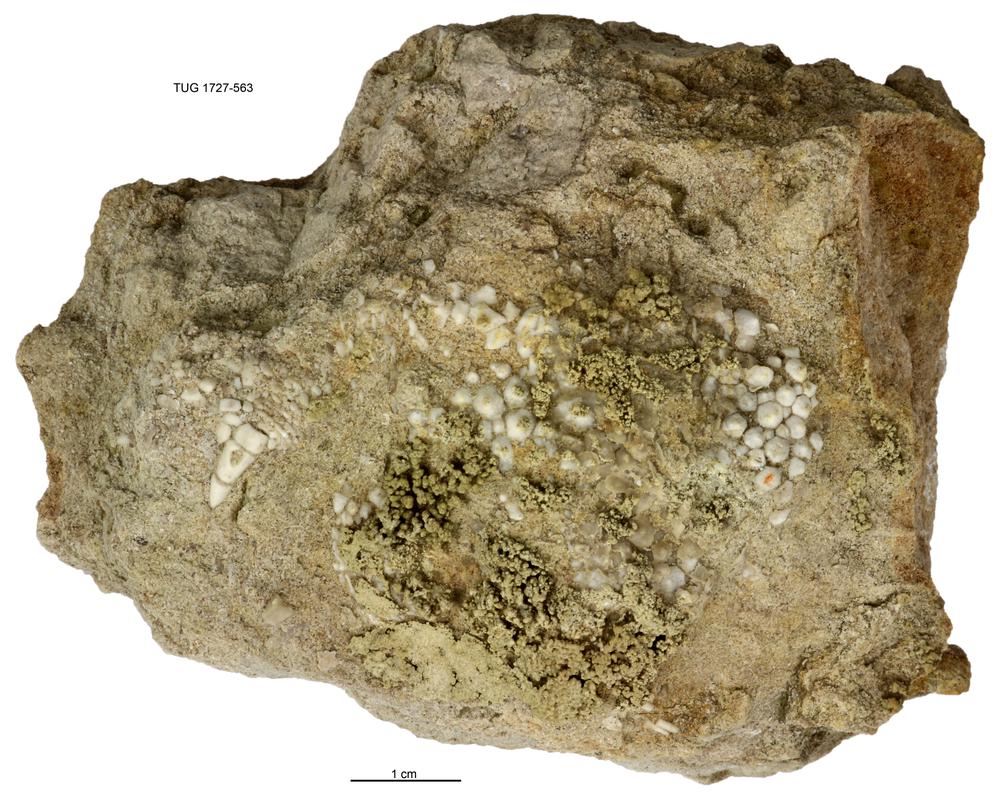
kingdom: Animalia
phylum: Echinodermata
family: Dendrocystitidae
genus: Dendrocystites
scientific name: Dendrocystites
